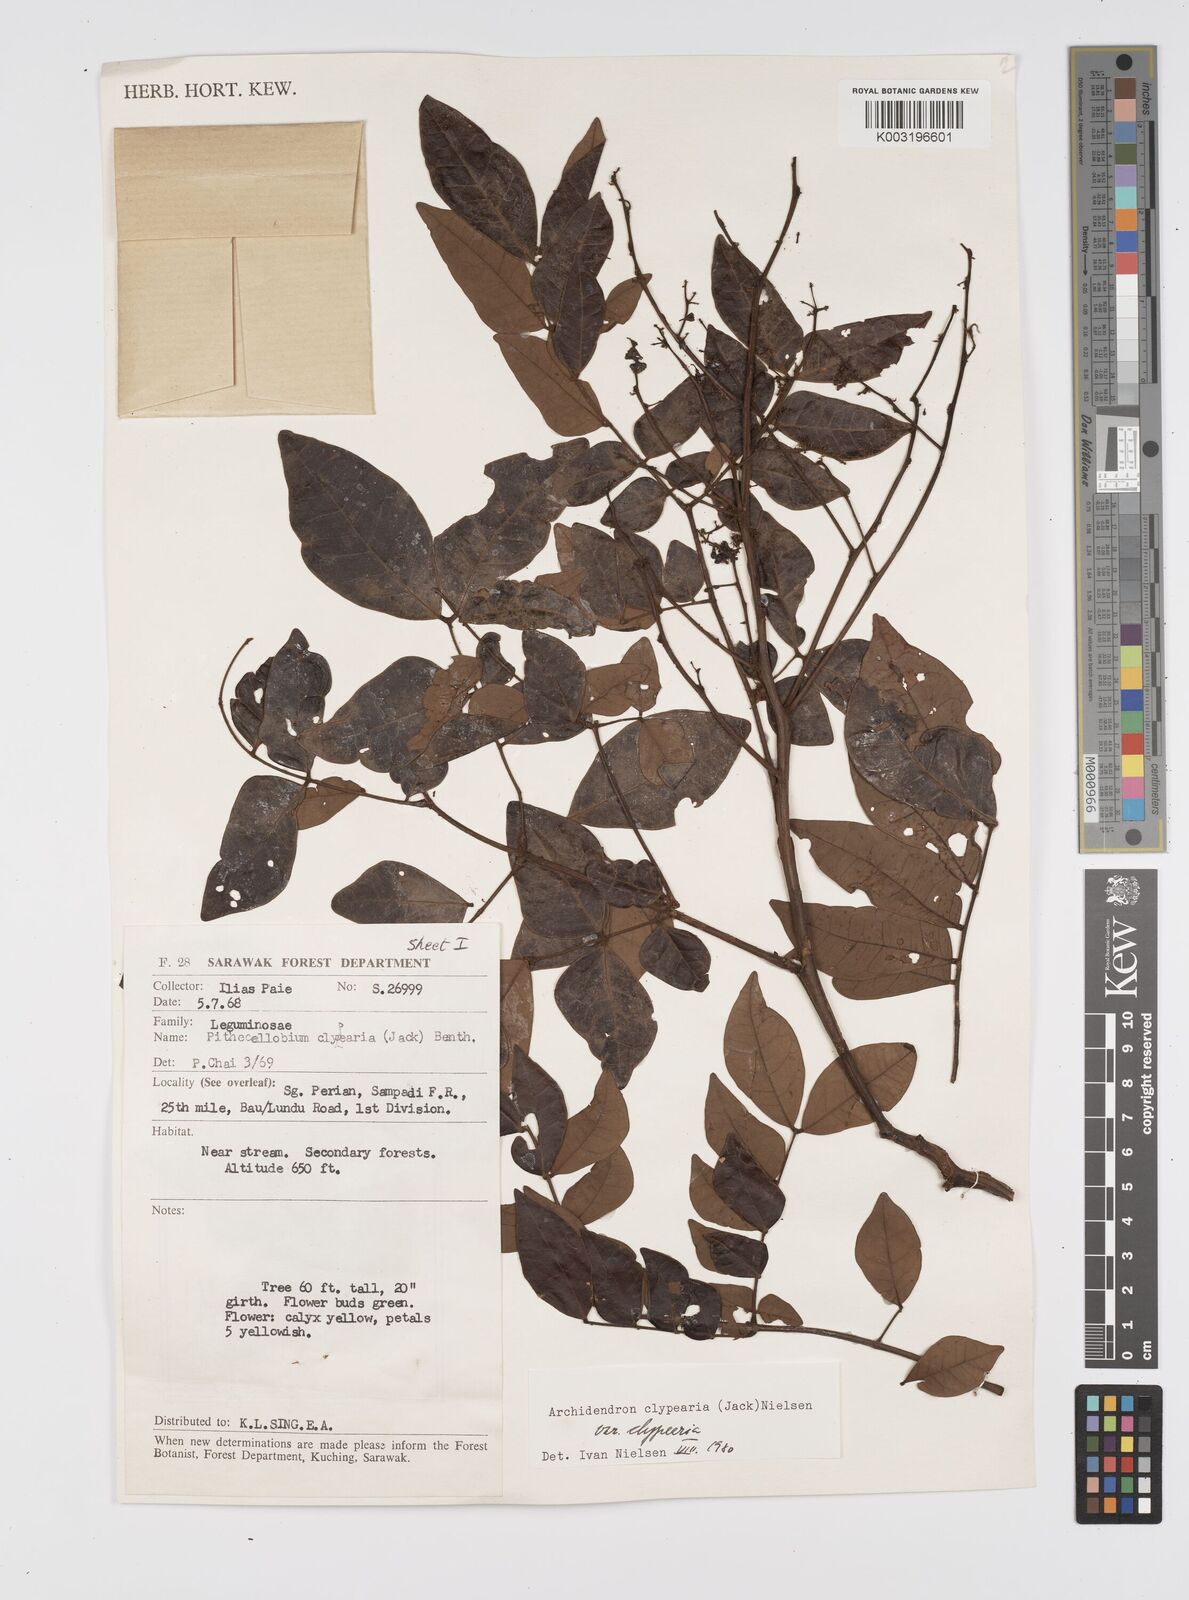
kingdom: Plantae
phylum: Tracheophyta
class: Magnoliopsida
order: Fabales
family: Fabaceae
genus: Archidendron
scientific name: Archidendron clypearia
